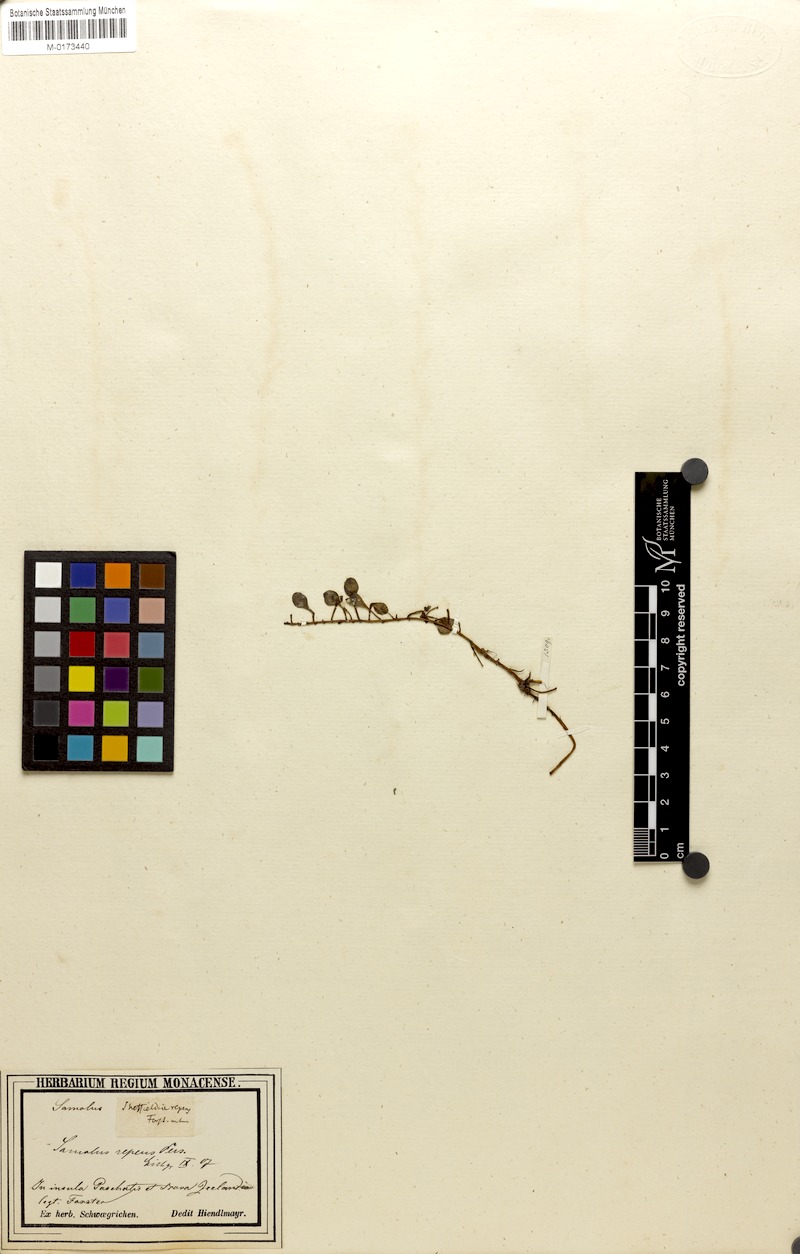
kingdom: Plantae
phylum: Tracheophyta
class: Magnoliopsida
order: Ericales
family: Primulaceae
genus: Samolus
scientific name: Samolus repens
